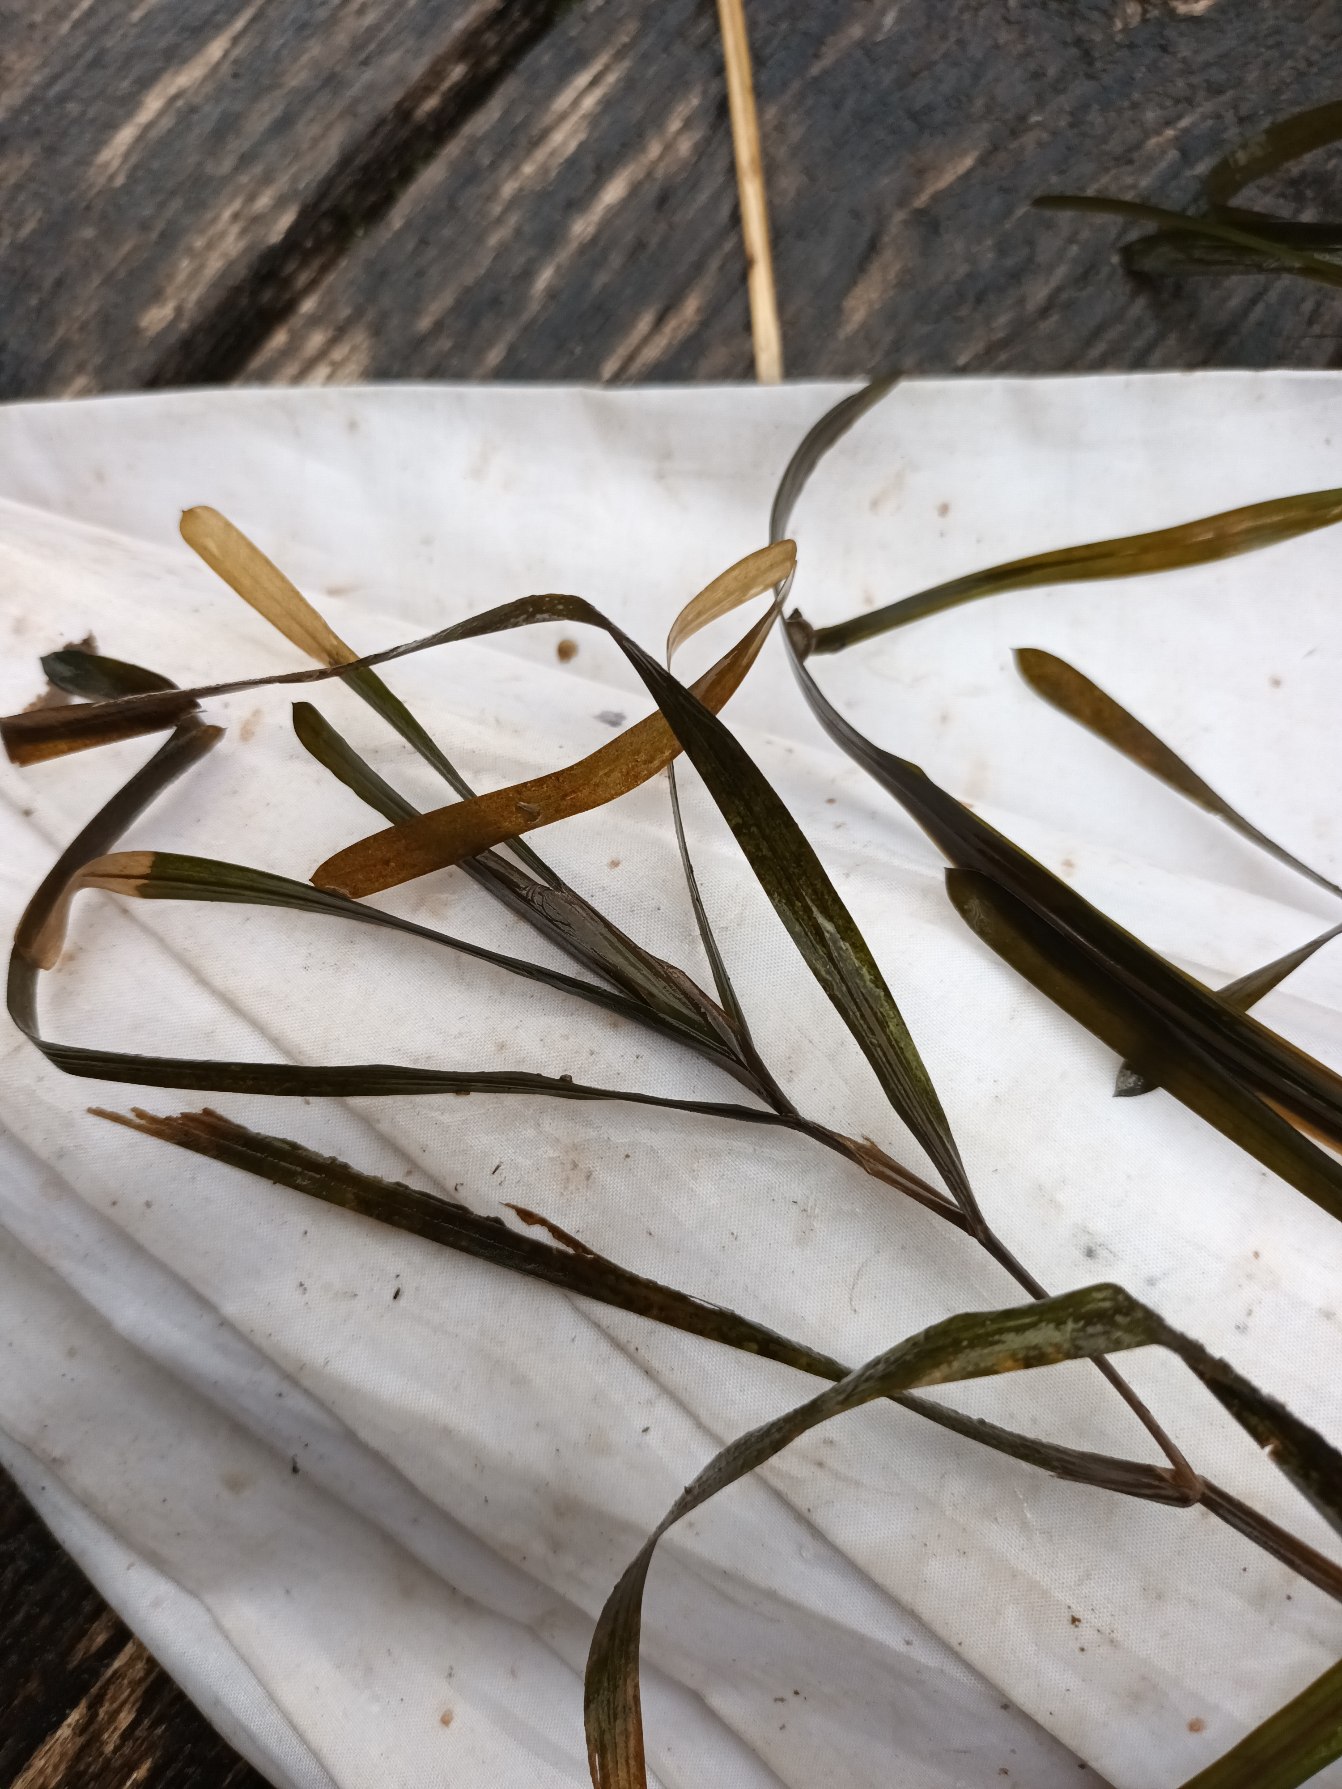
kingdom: Plantae
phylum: Tracheophyta
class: Liliopsida
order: Alismatales
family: Potamogetonaceae
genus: Potamogeton
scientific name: Potamogeton compressus
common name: Bændel-vandaks
